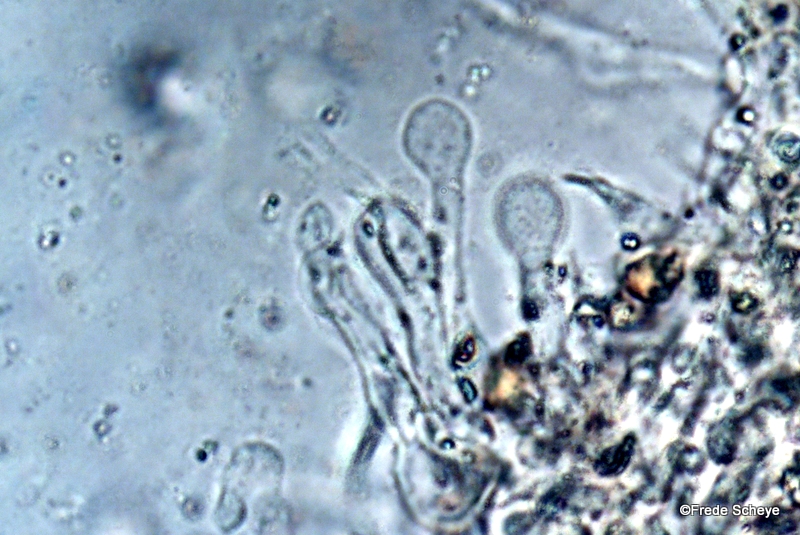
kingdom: Fungi
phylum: Basidiomycota
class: Agaricomycetes
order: Agaricales
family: Tubariaceae
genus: Tubaria
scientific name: Tubaria furfuracea
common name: kliddet fnughat
